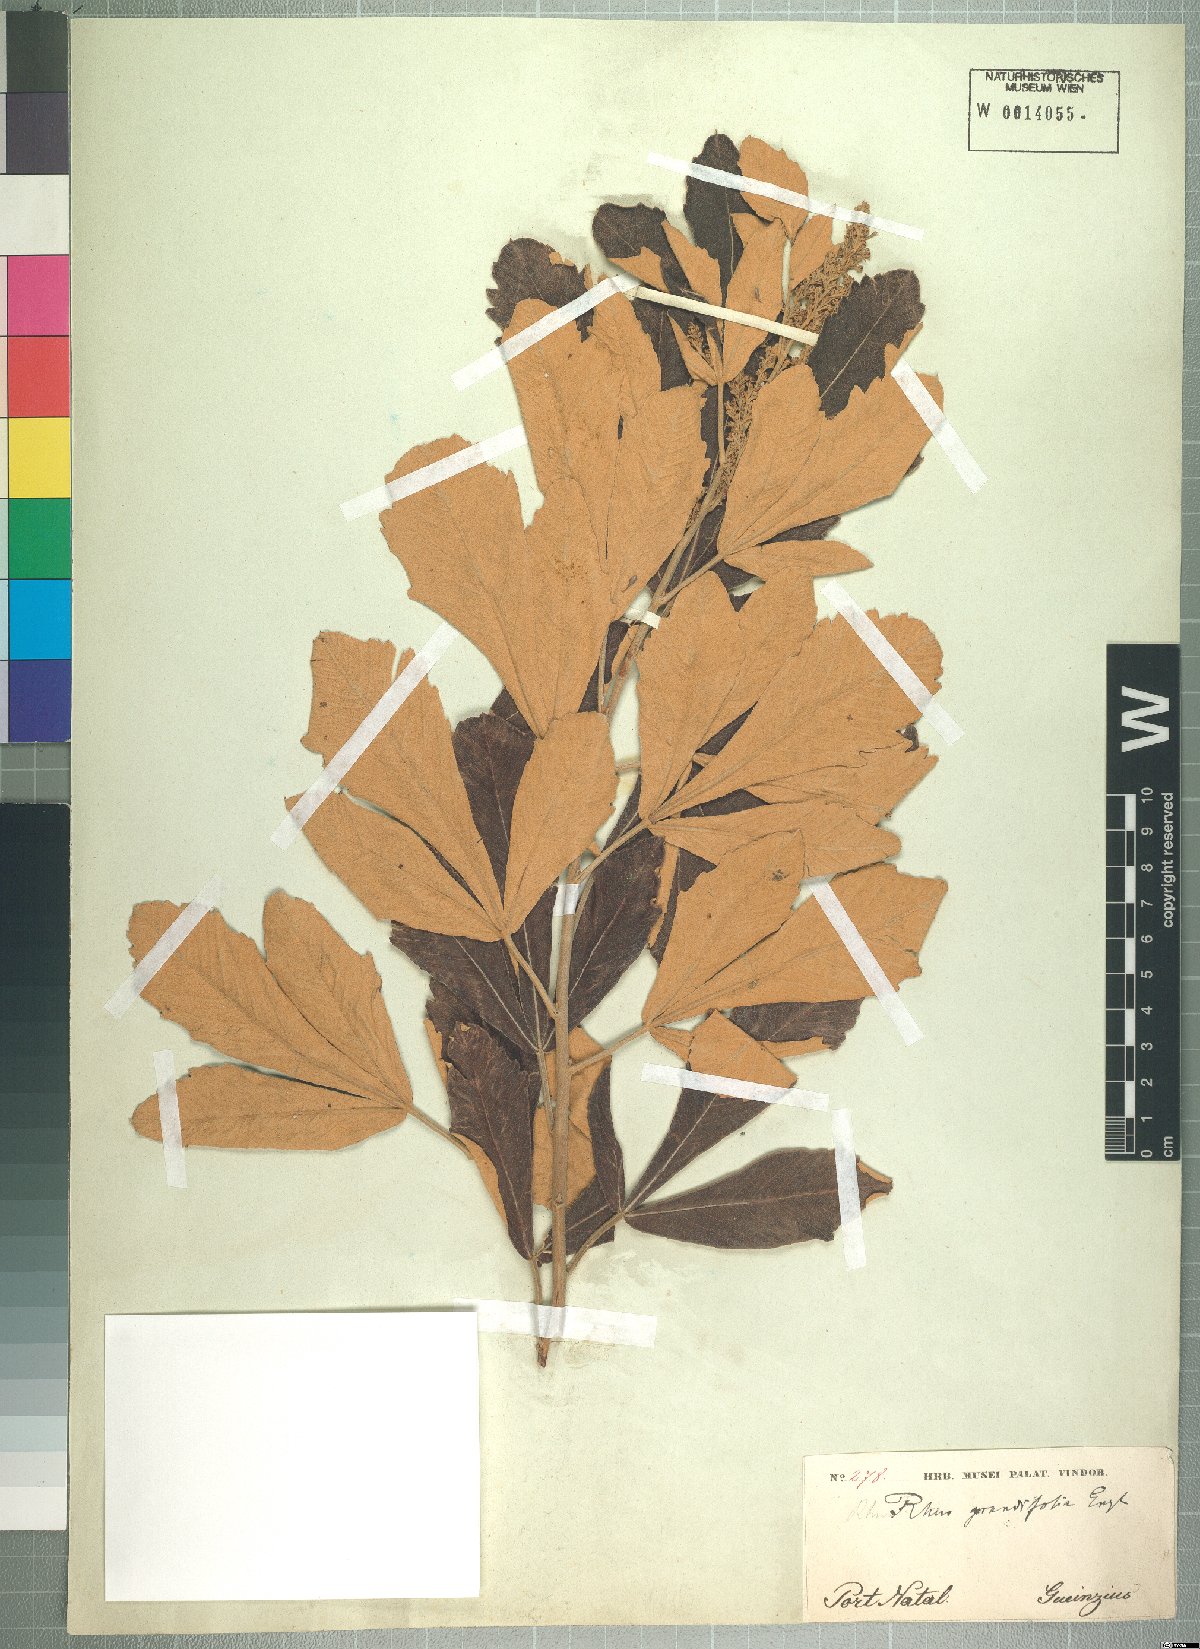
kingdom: Plantae
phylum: Tracheophyta
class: Magnoliopsida
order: Sapindales
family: Anacardiaceae
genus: Searsia
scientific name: Searsia discolor
